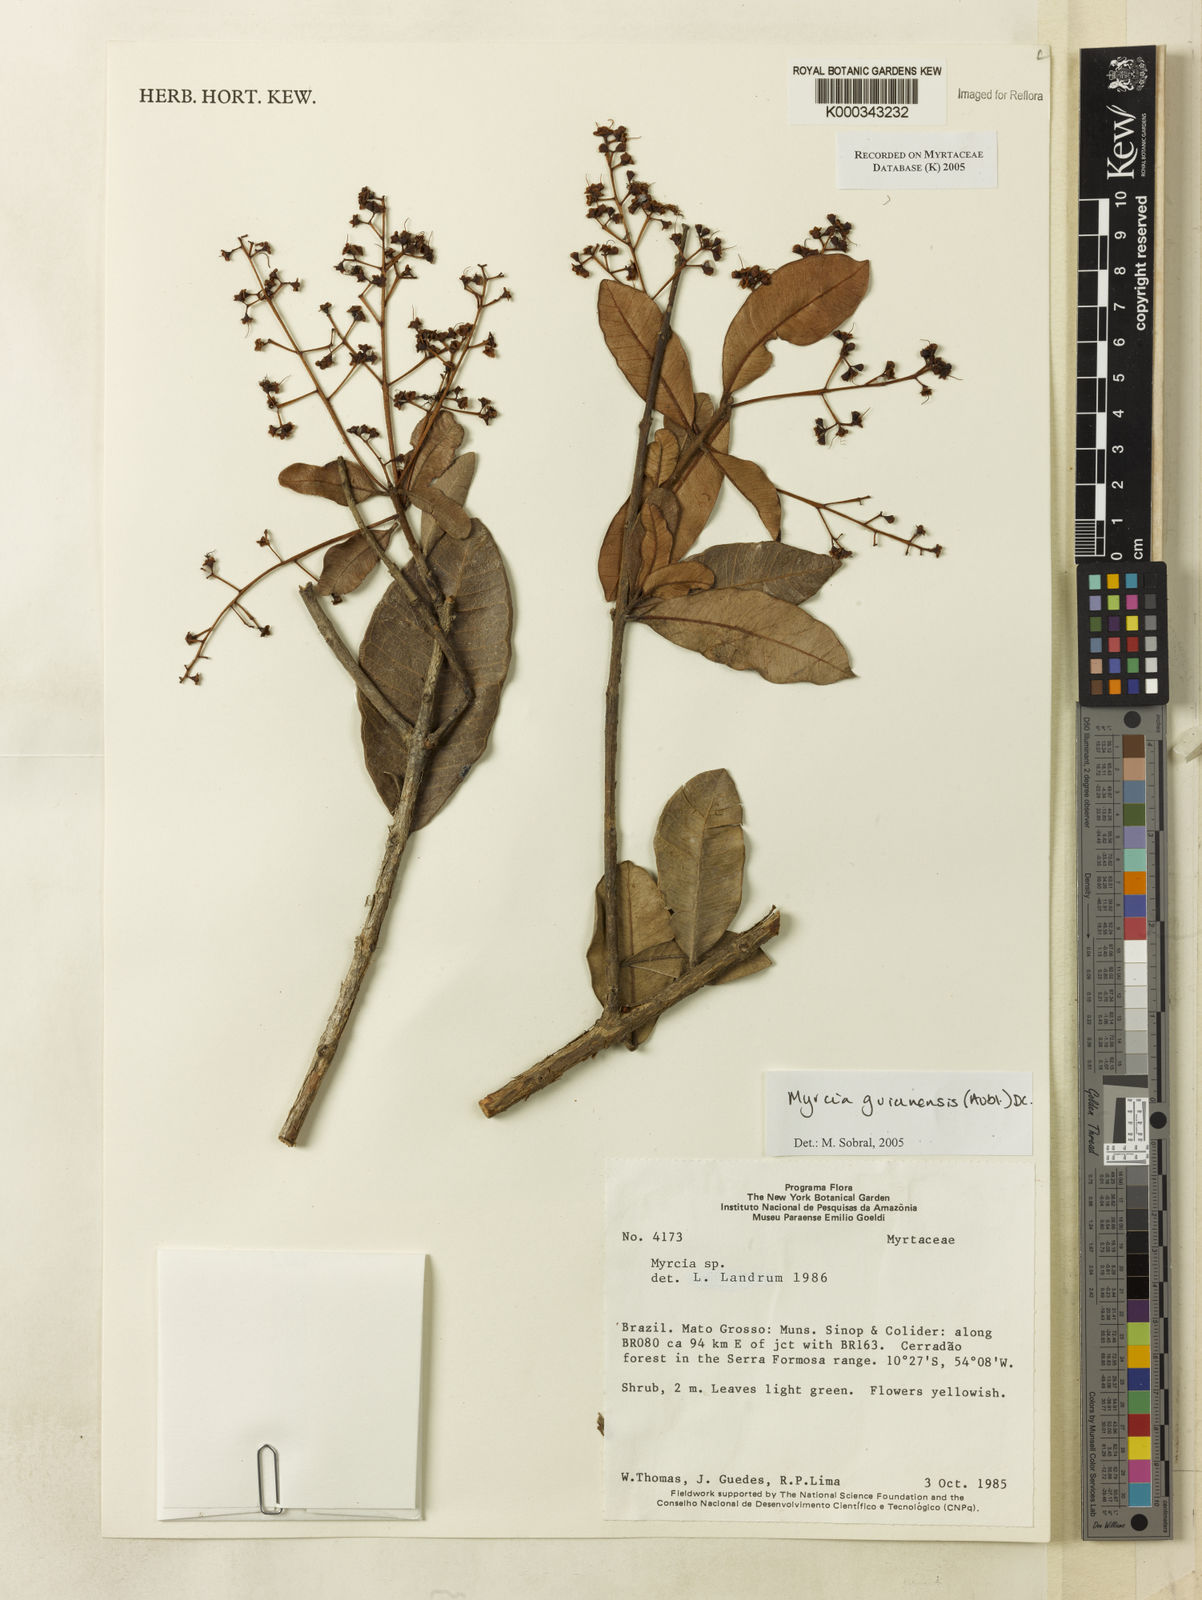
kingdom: Plantae
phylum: Tracheophyta
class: Magnoliopsida
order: Myrtales
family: Myrtaceae
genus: Myrcia
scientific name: Myrcia guianensis
